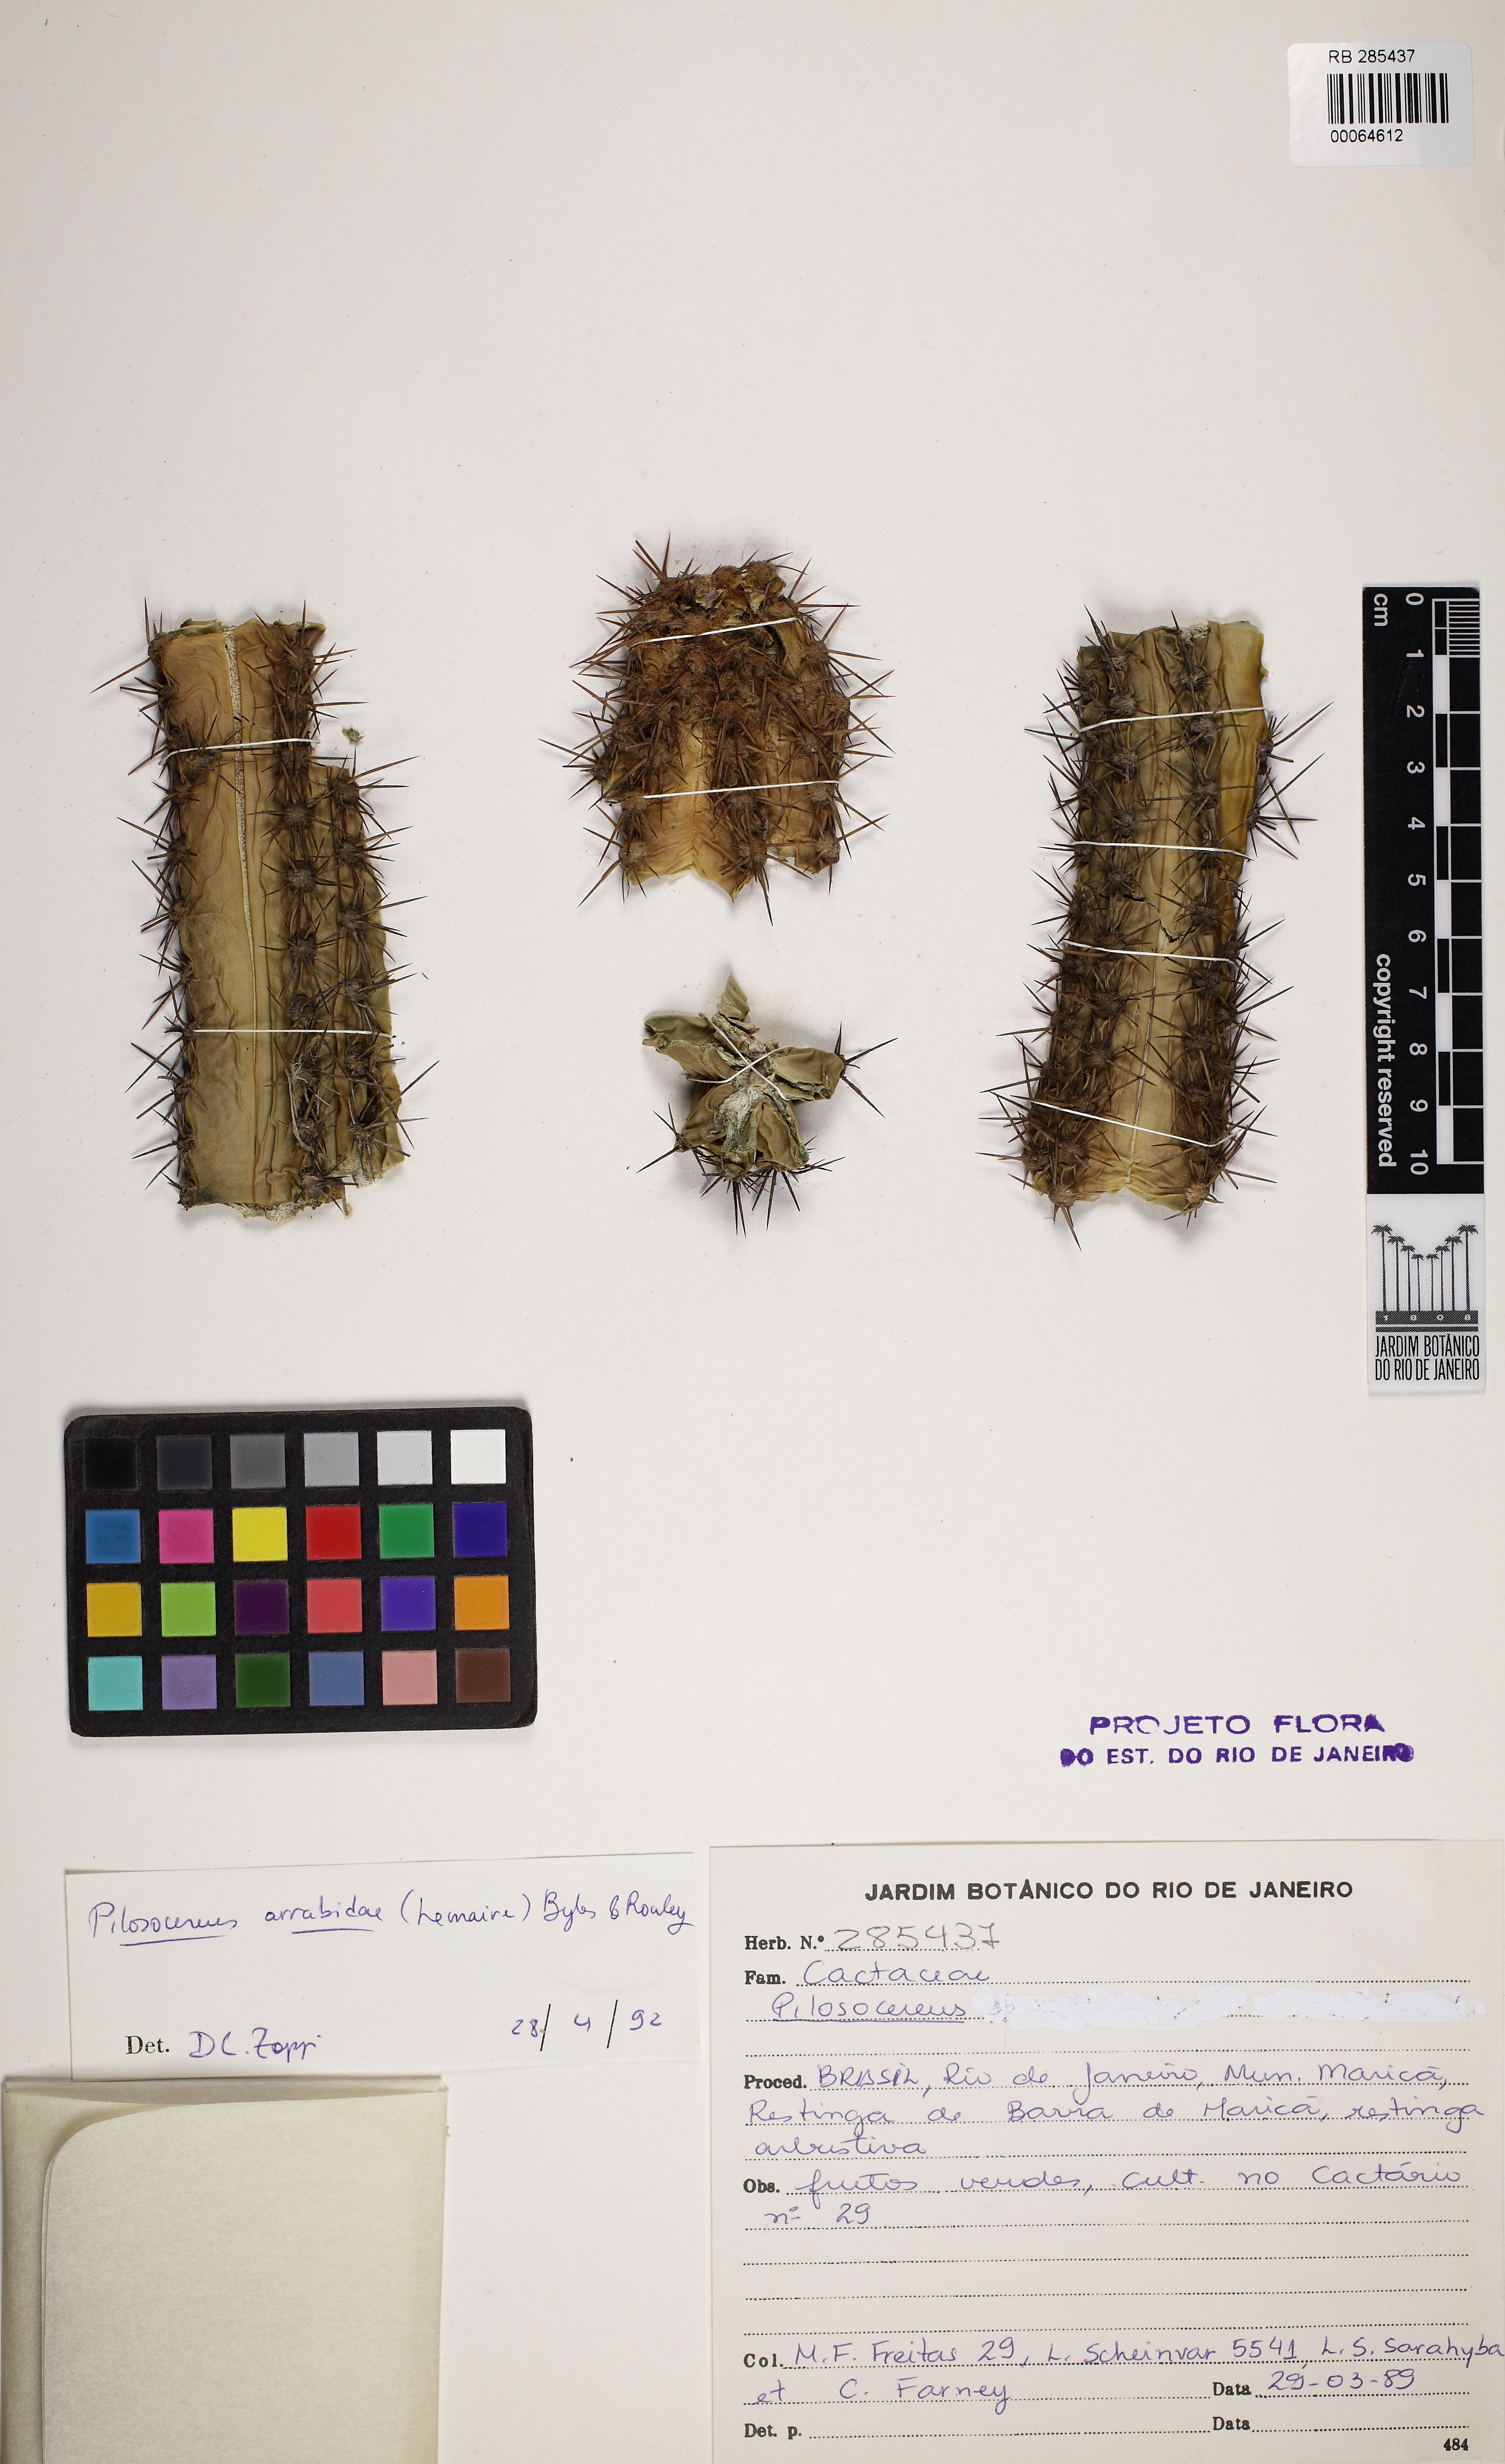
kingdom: Plantae
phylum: Tracheophyta
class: Magnoliopsida
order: Caryophyllales
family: Cactaceae
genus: Pilosocereus
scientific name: Pilosocereus arrabidae
